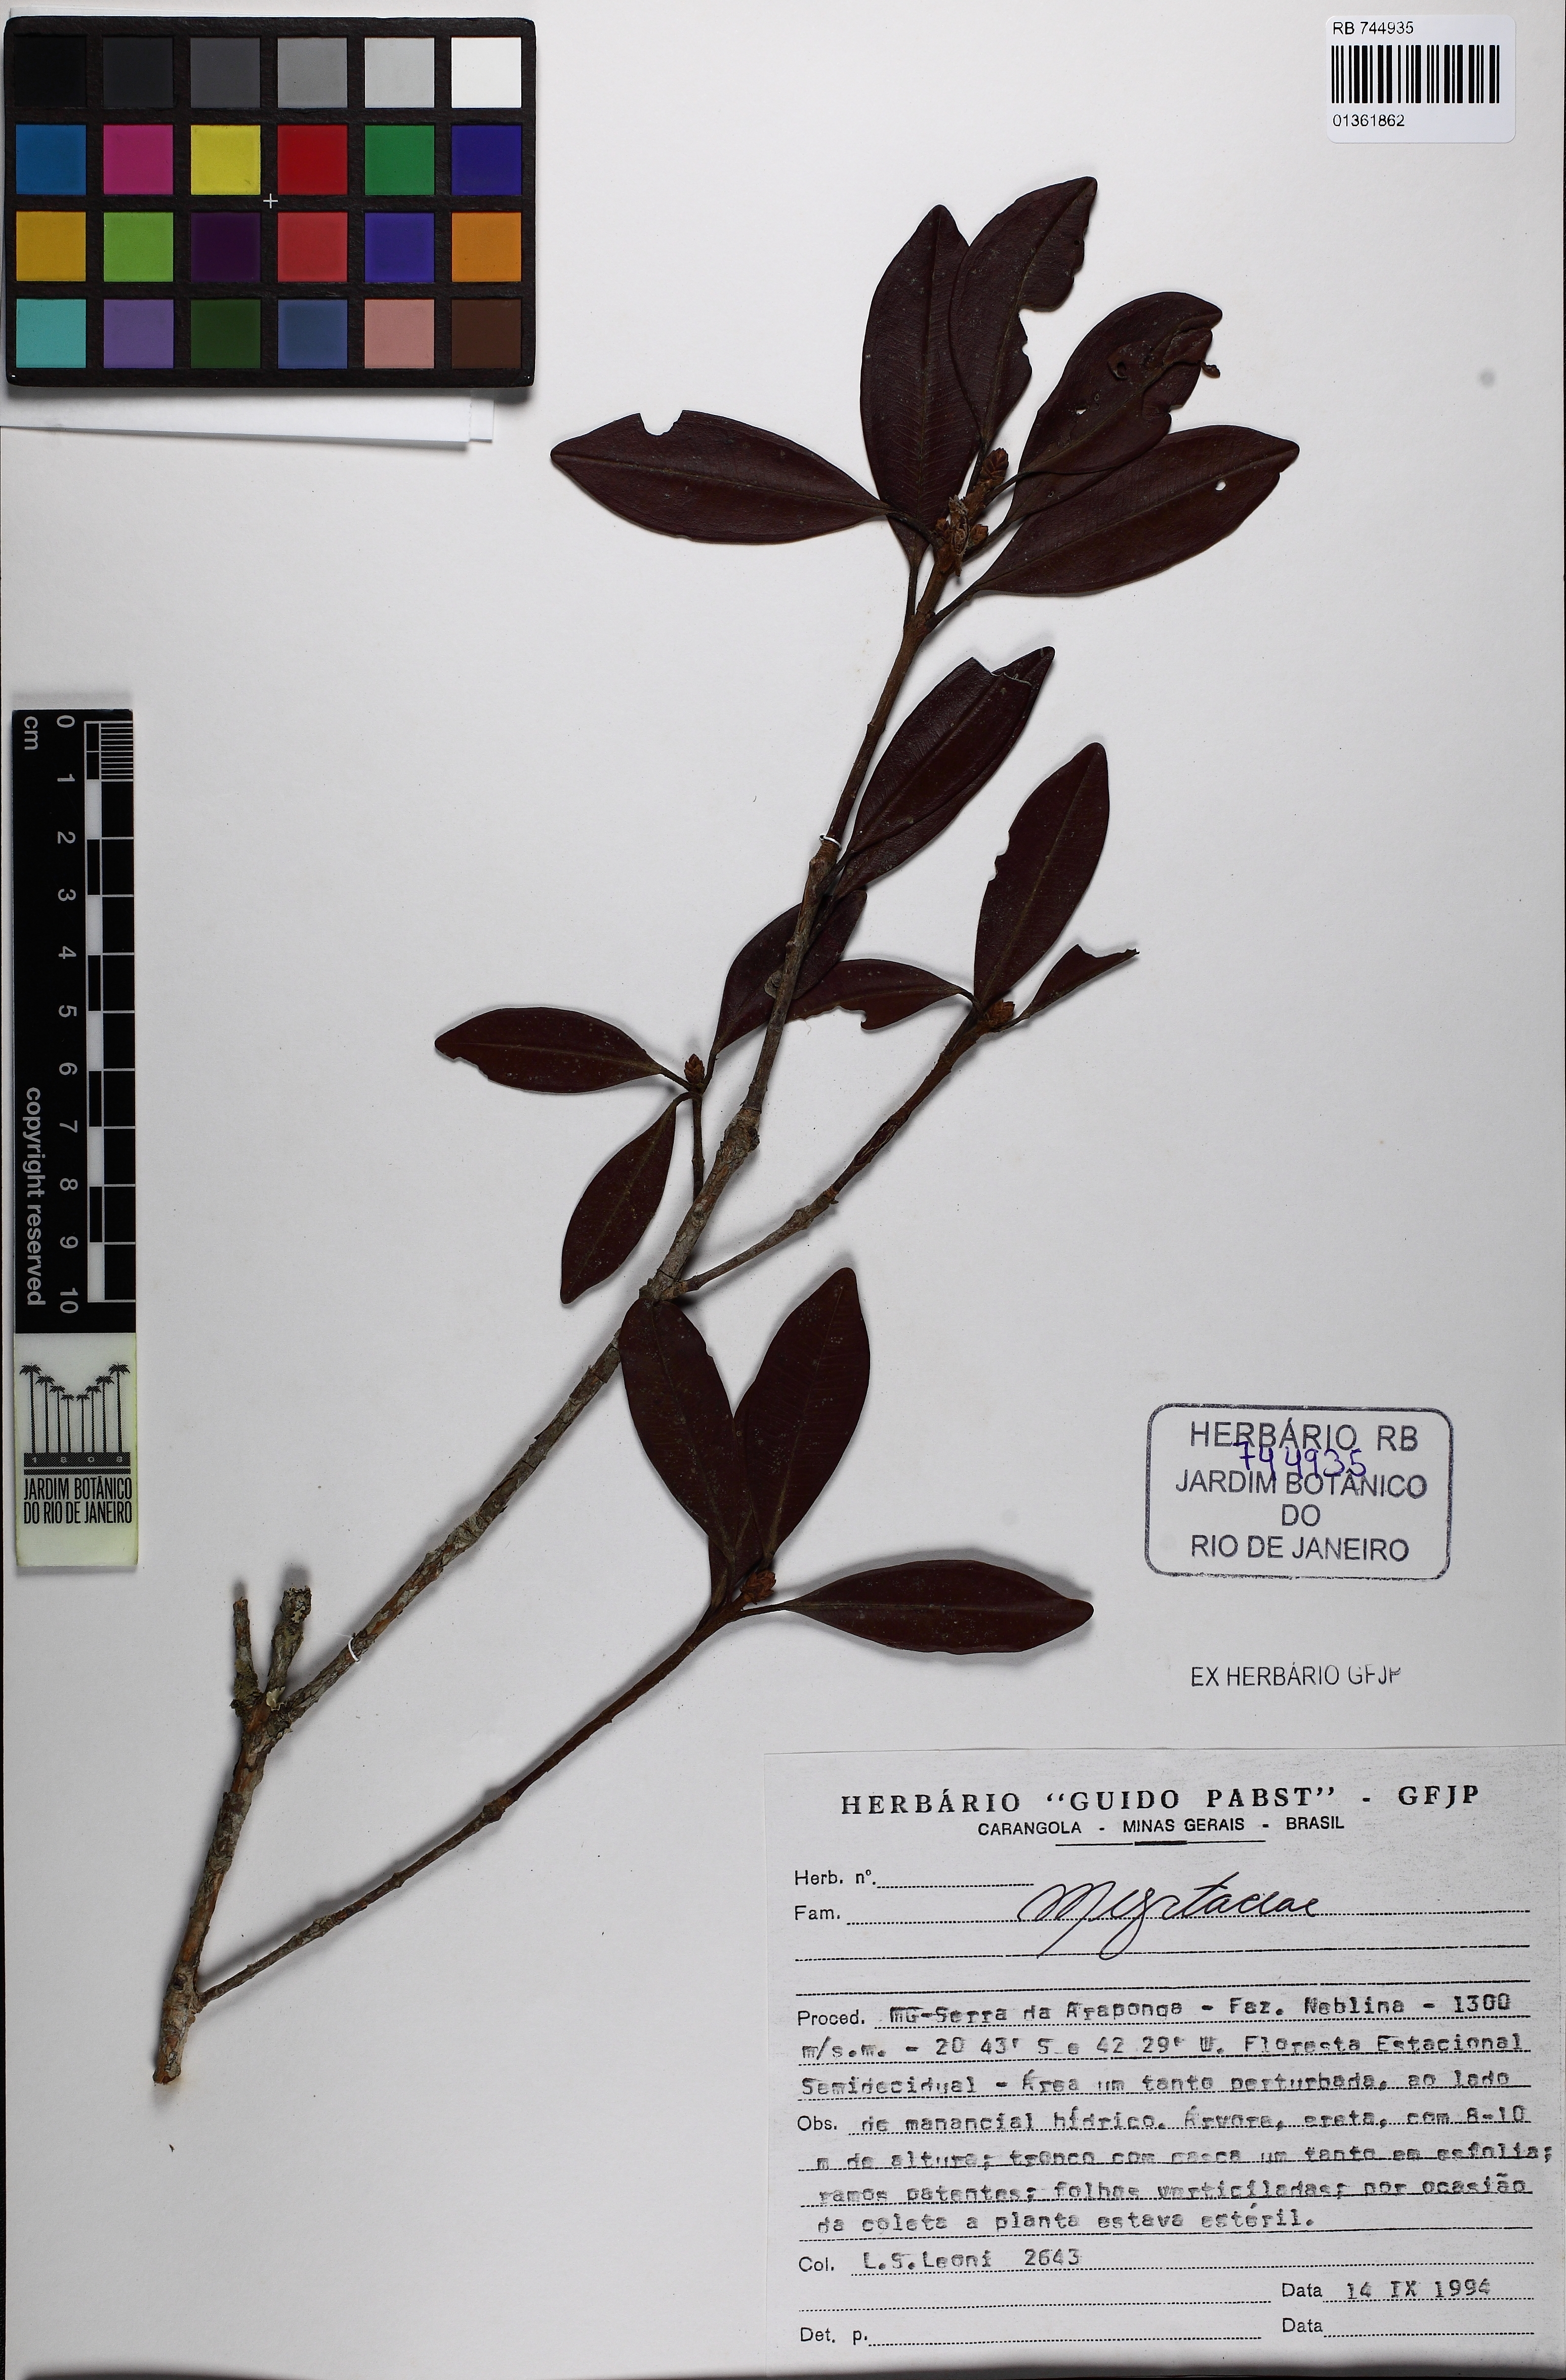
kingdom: Plantae
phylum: Tracheophyta
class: Magnoliopsida
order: Myrtales
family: Myrtaceae
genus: Eugenia
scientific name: Eugenia
